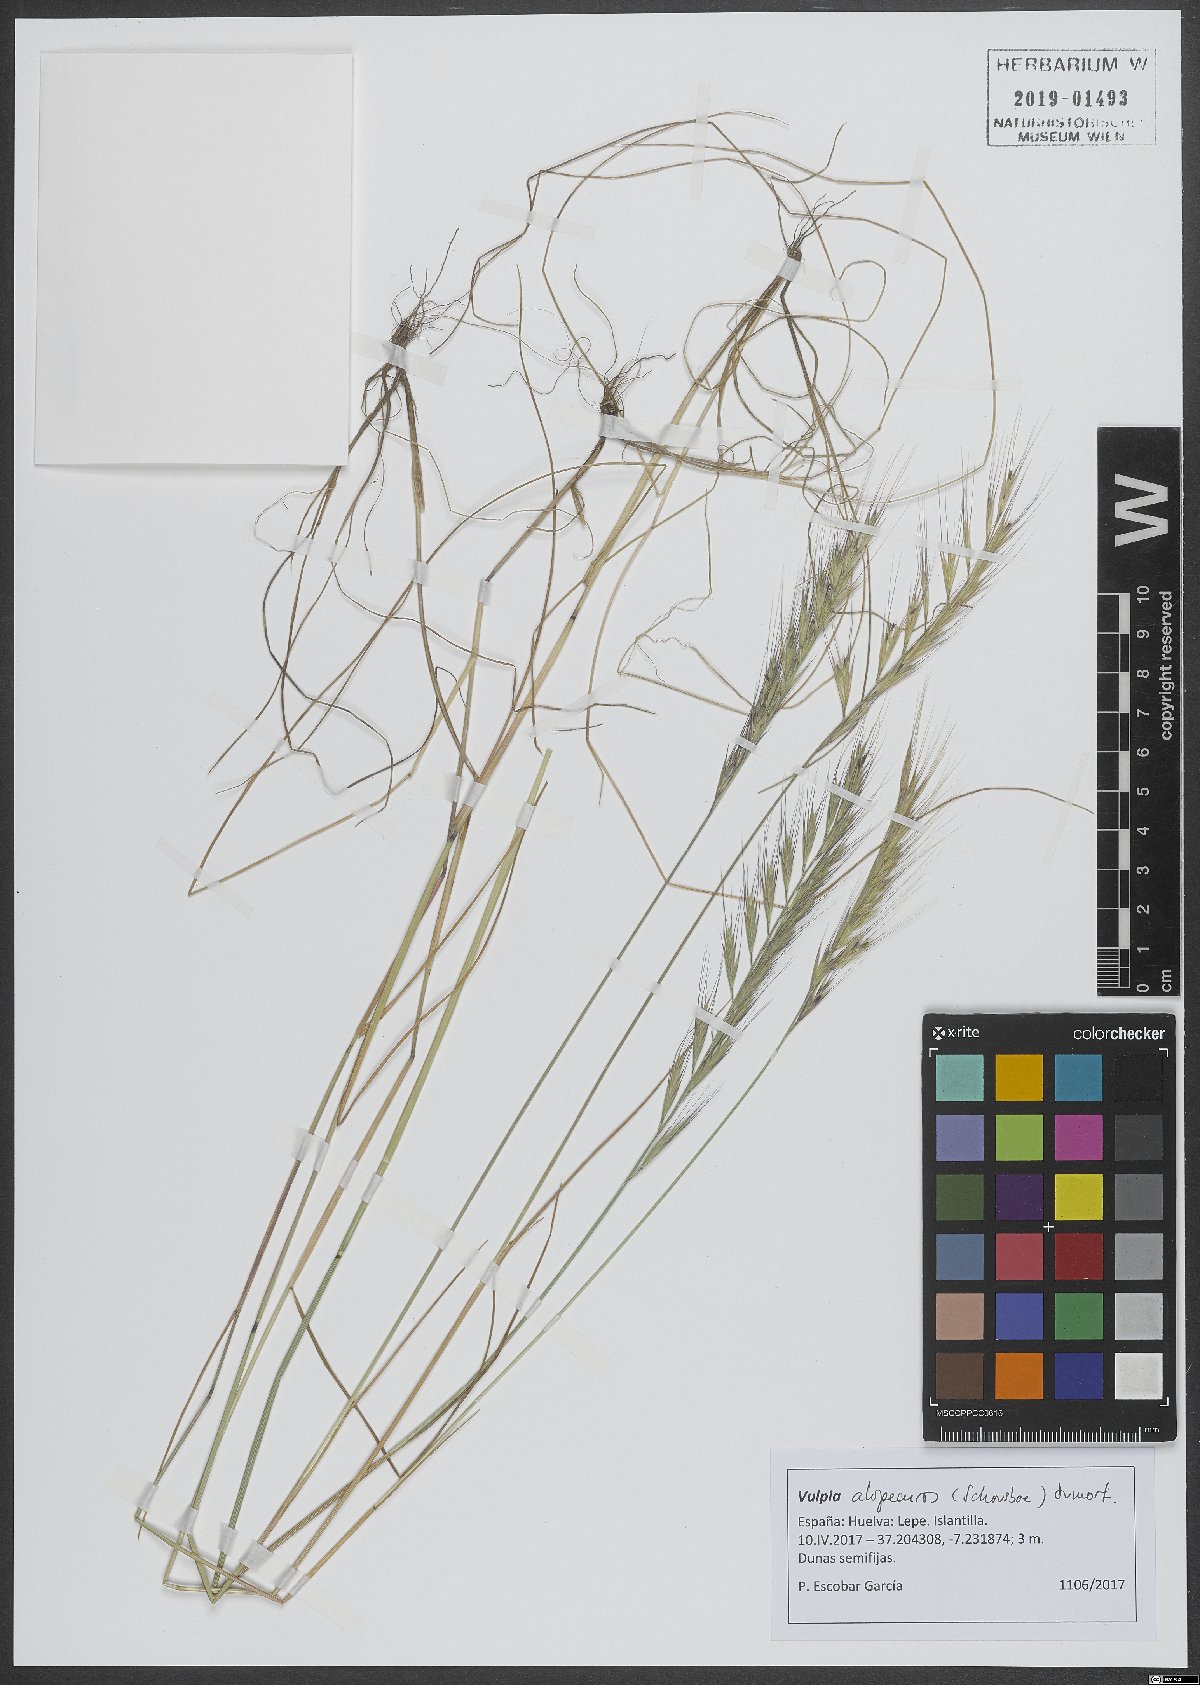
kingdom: Plantae
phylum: Tracheophyta
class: Liliopsida
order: Poales
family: Poaceae
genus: Festuca
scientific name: Festuca alopecuros
